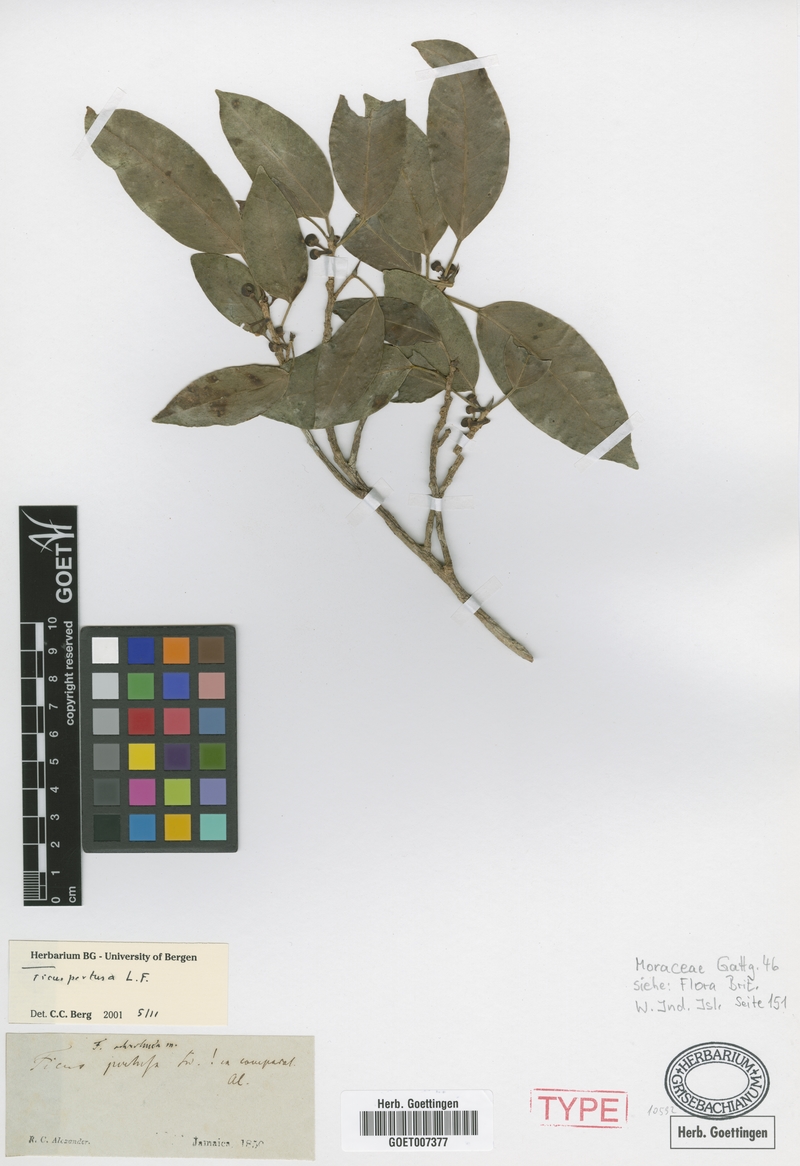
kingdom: Plantae
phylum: Tracheophyta
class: Magnoliopsida
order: Rosales
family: Moraceae
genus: Ficus
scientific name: Ficus pertusa
